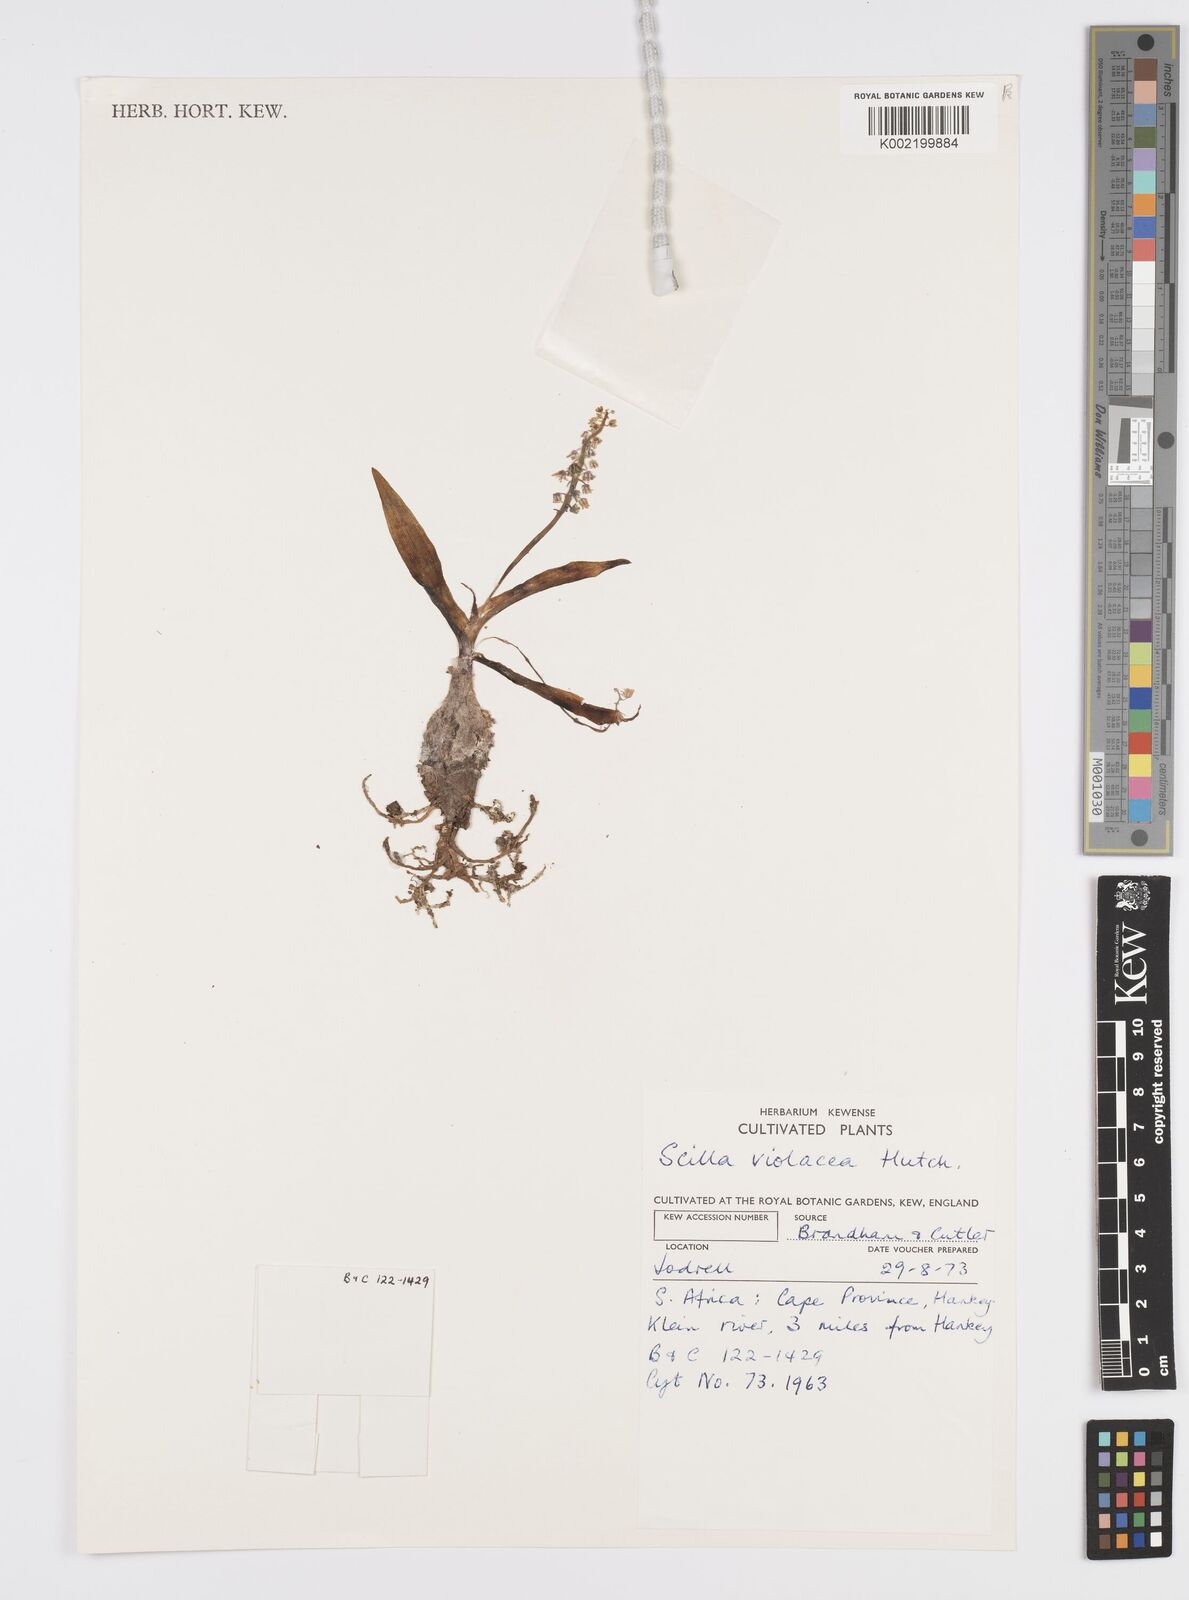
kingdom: Plantae
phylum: Tracheophyta
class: Liliopsida
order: Asparagales
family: Asparagaceae
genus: Ledebouria
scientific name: Ledebouria socialis
